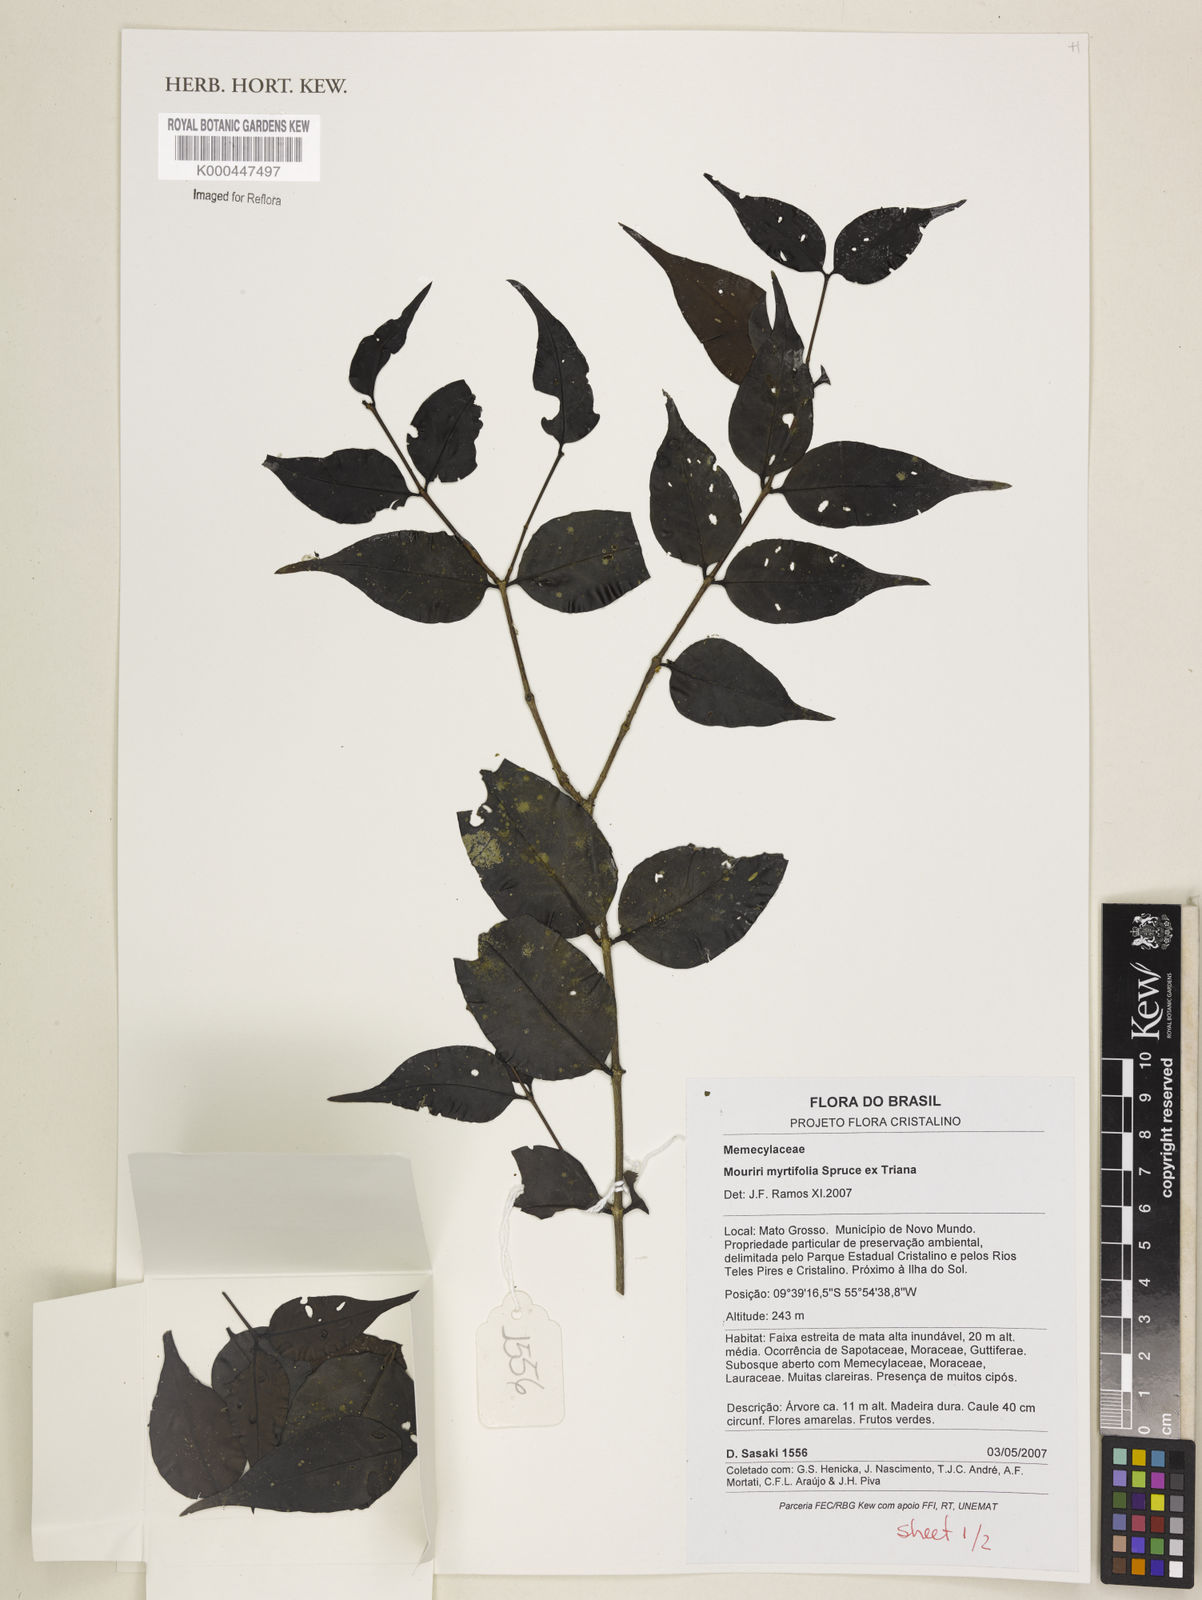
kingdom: Plantae
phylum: Tracheophyta
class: Magnoliopsida
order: Myrtales
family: Melastomataceae
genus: Mouriri
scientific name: Mouriri myrtifolia
